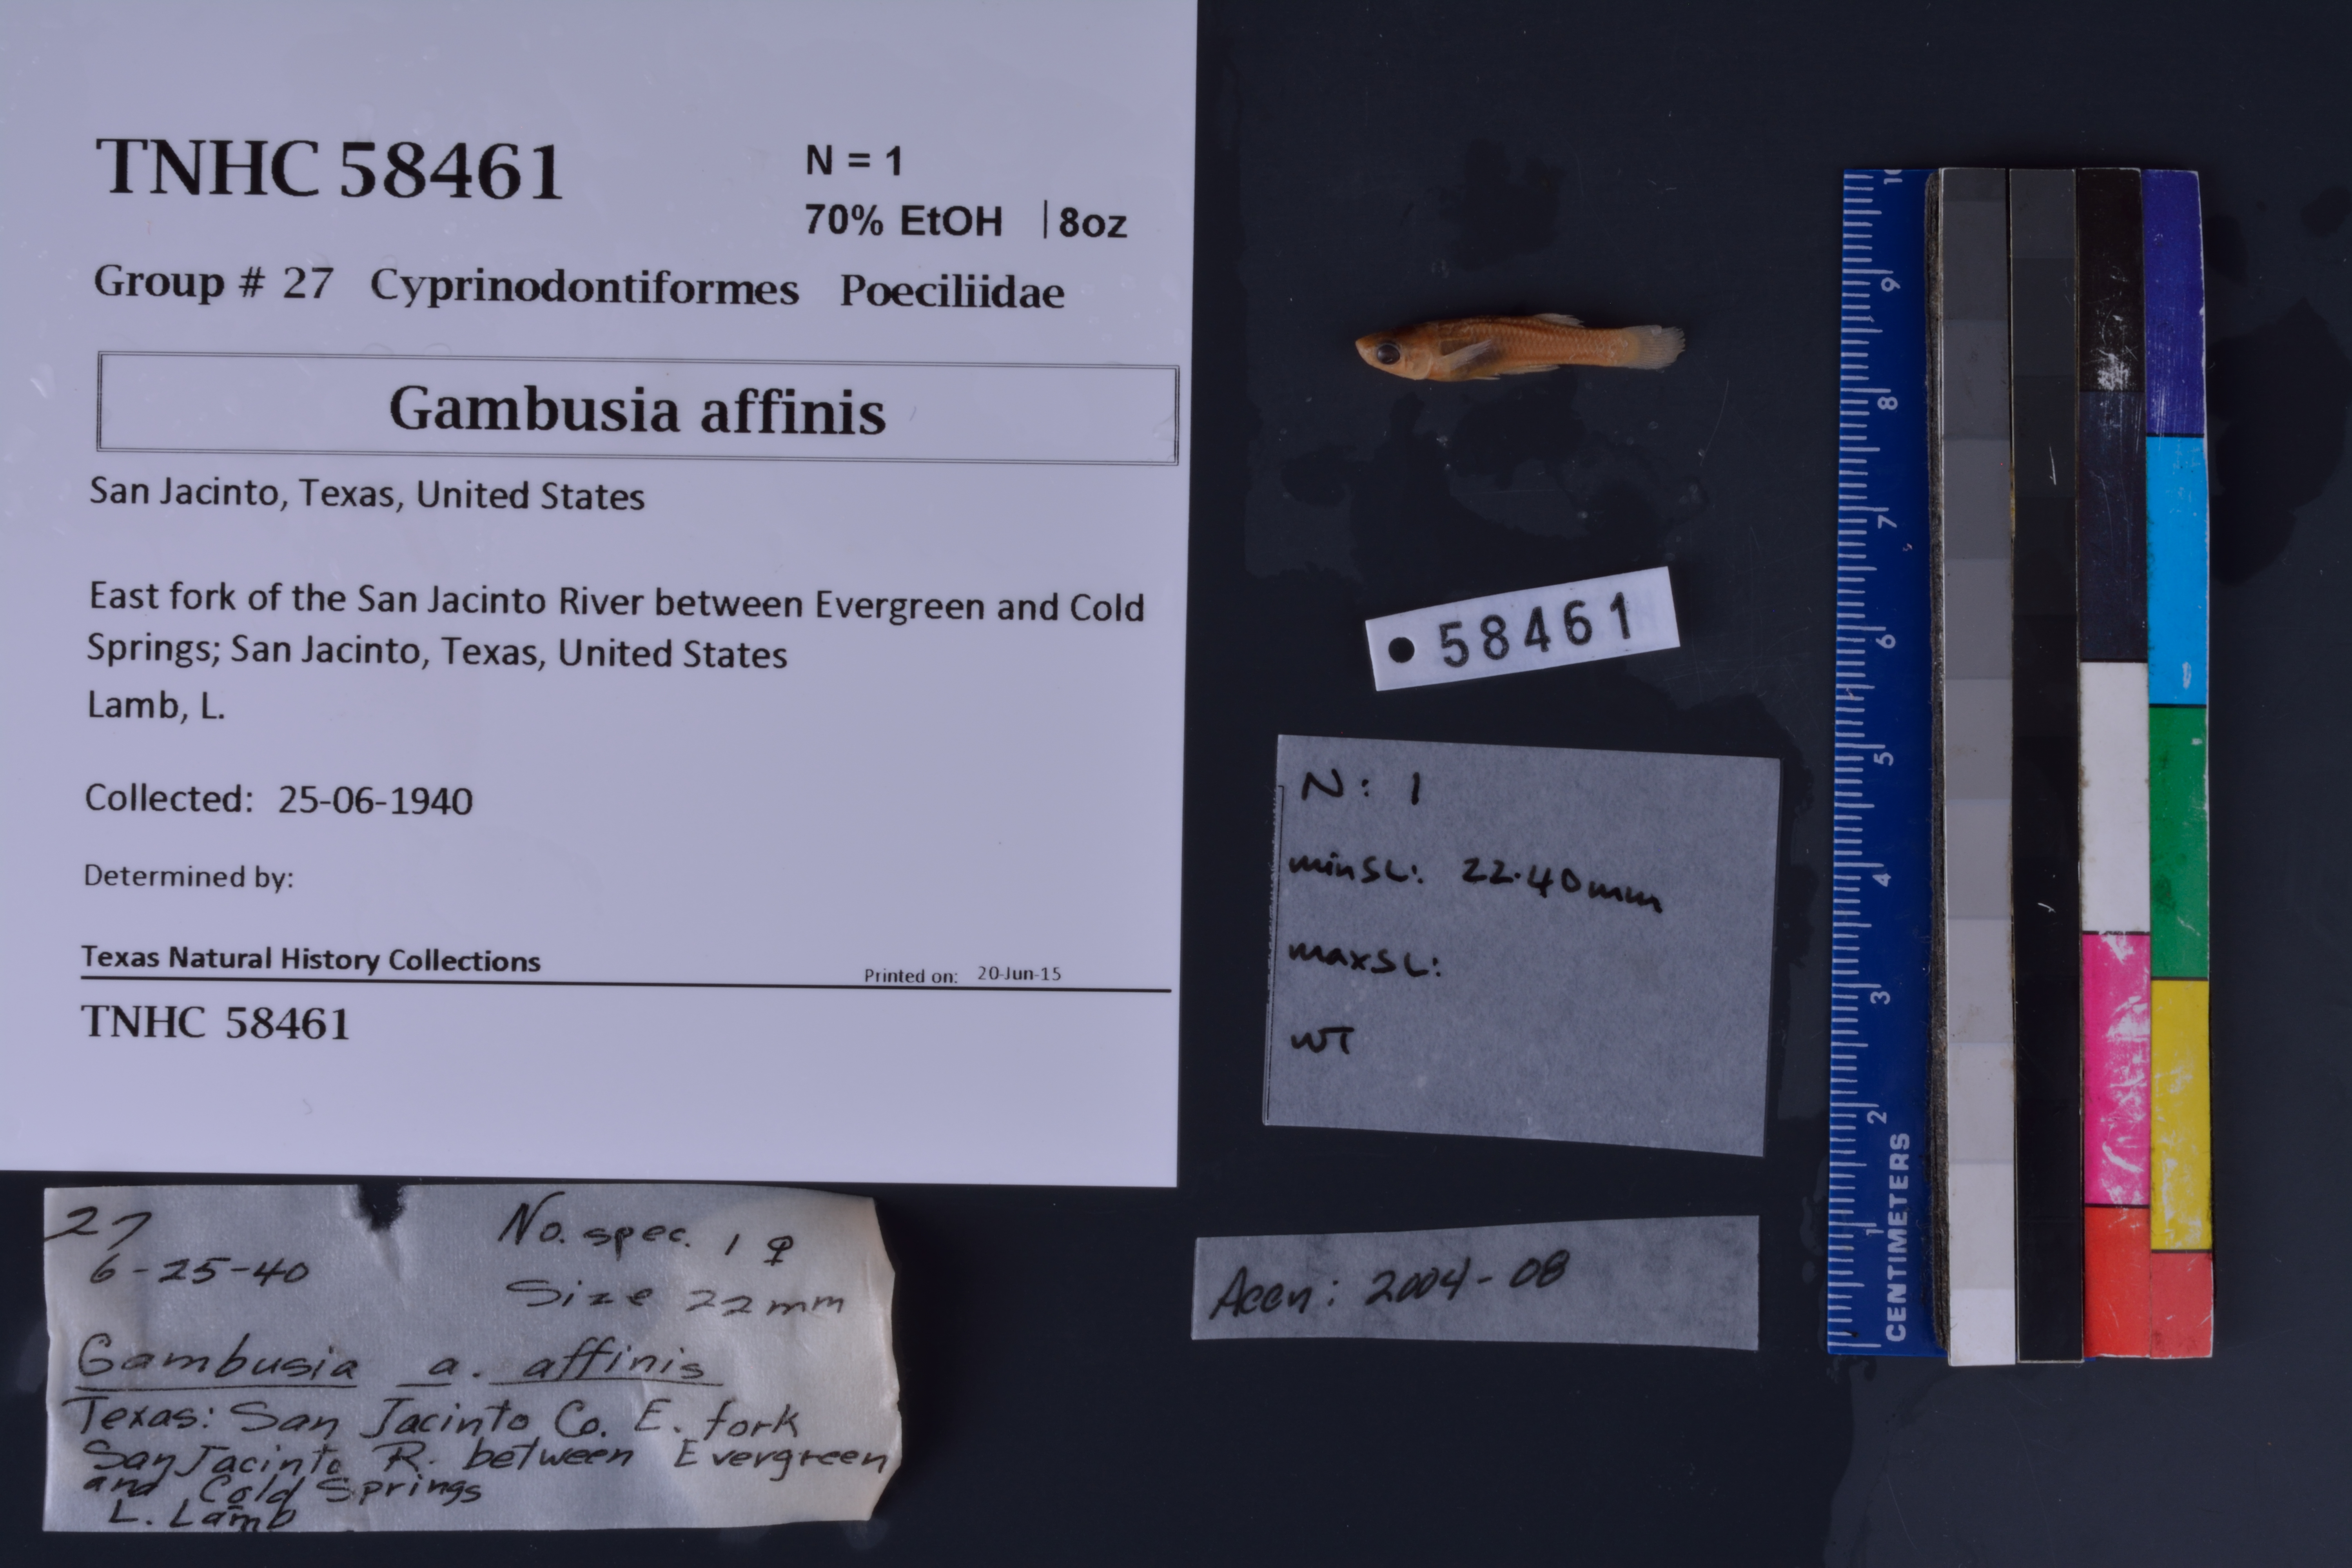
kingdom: Animalia
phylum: Chordata
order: Cyprinodontiformes
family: Poeciliidae
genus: Gambusia
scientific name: Gambusia affinis
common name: Mosquitofish
